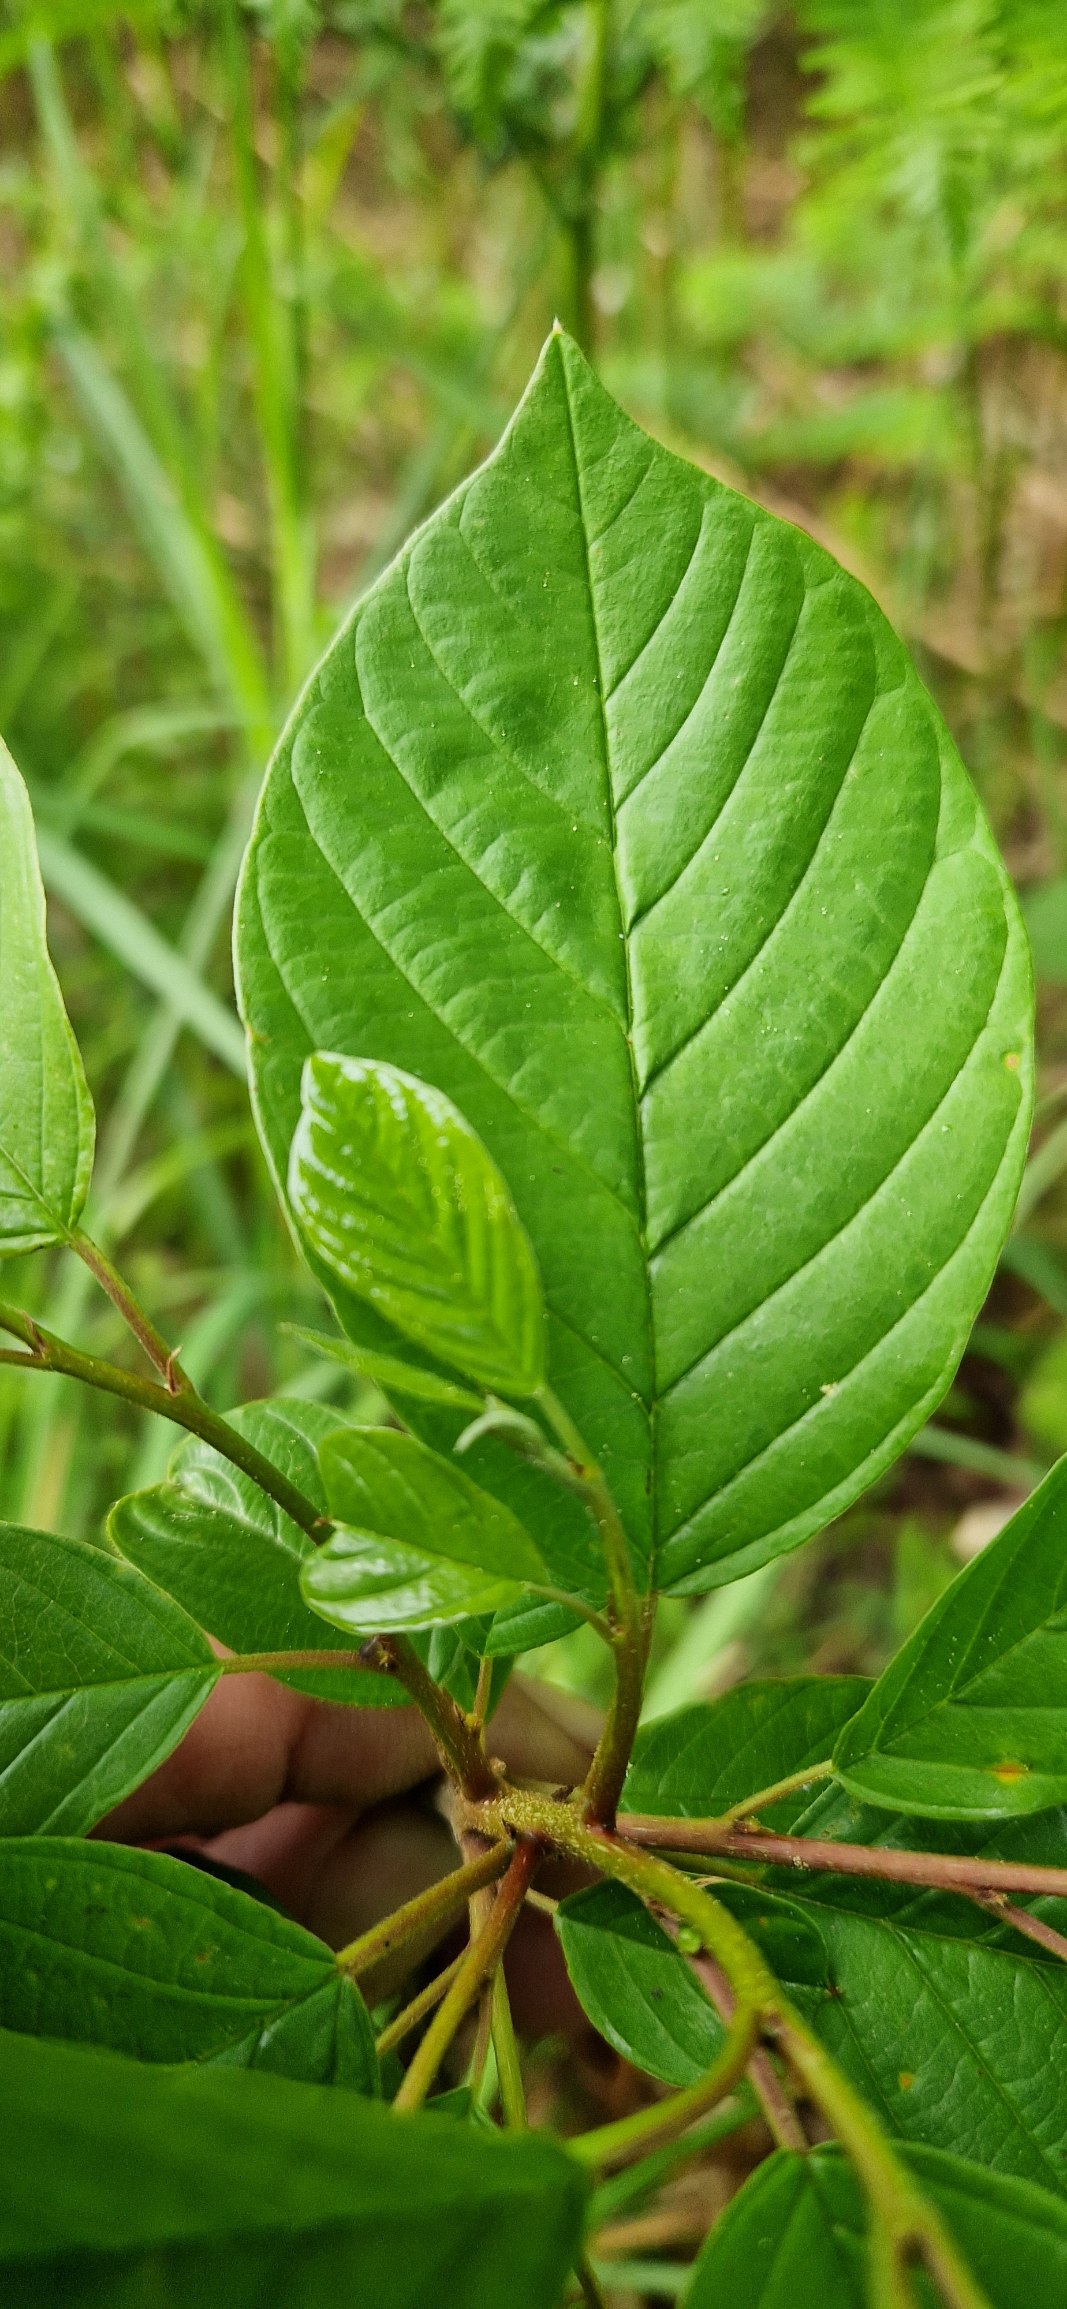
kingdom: Plantae
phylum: Tracheophyta
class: Magnoliopsida
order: Rosales
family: Rhamnaceae
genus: Frangula
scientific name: Frangula alnus
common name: Tørst
